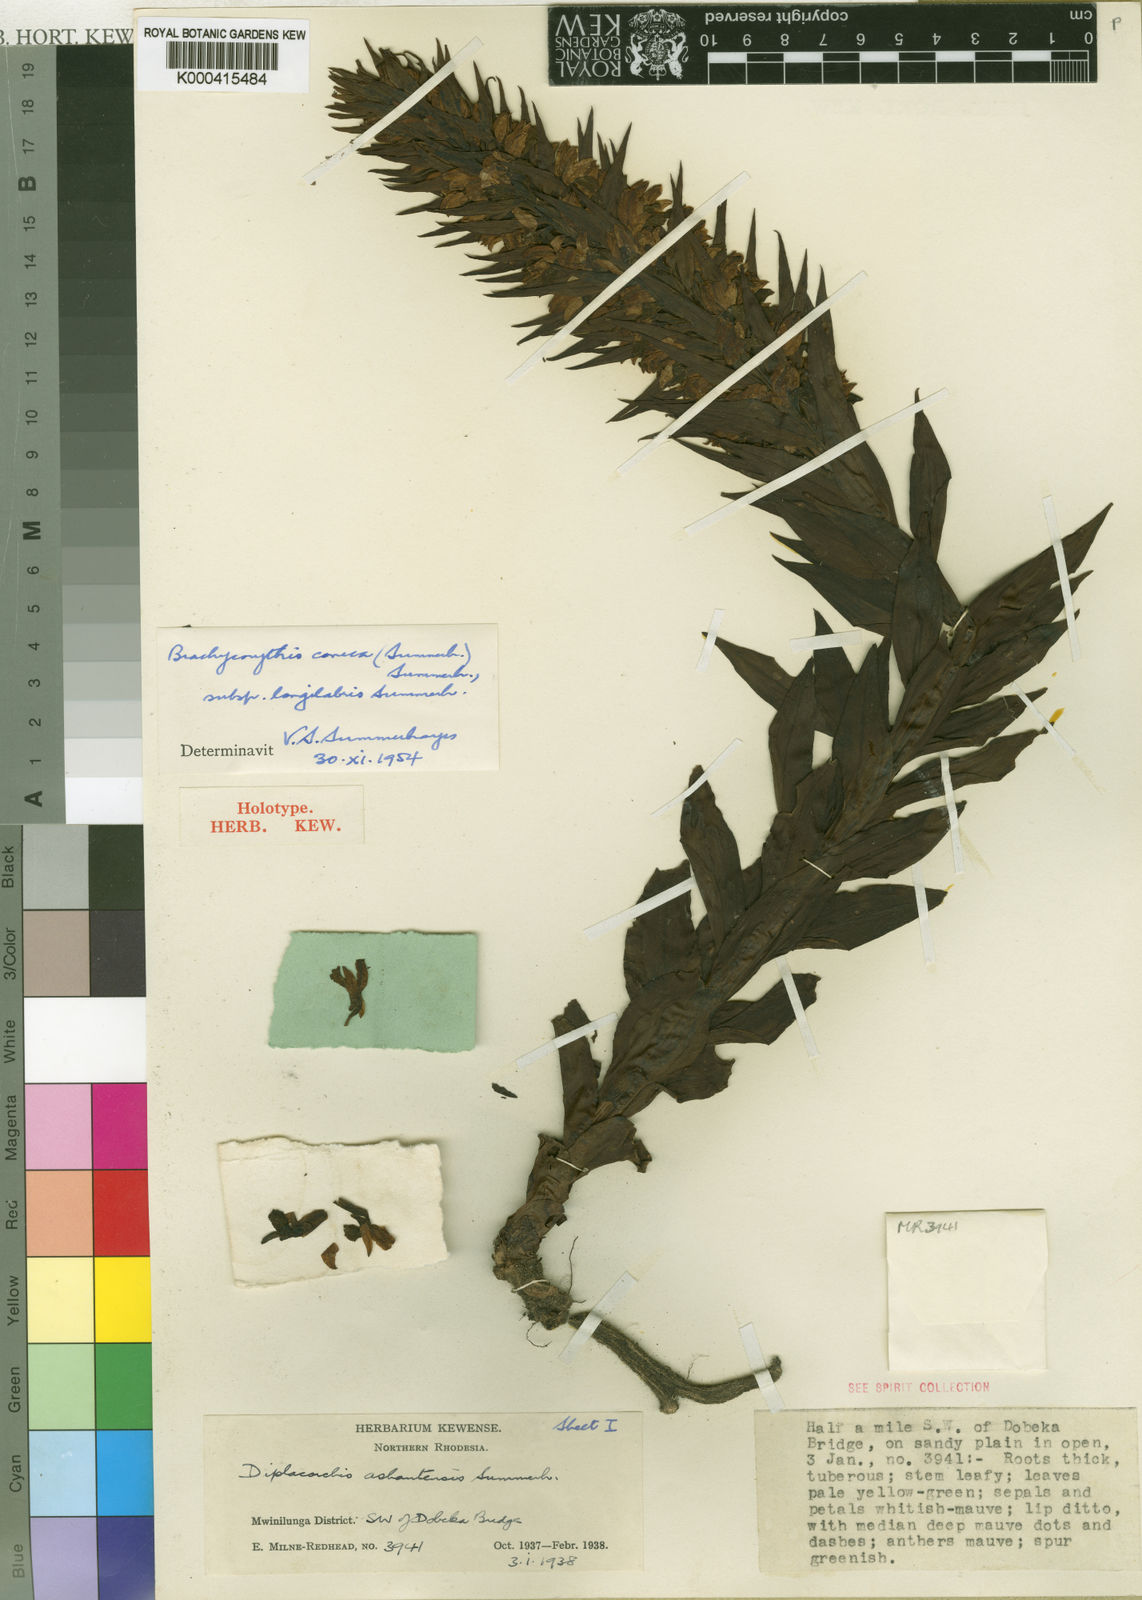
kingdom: Plantae
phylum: Tracheophyta
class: Liliopsida
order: Asparagales
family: Orchidaceae
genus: Brachycorythis
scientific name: Brachycorythis conica
